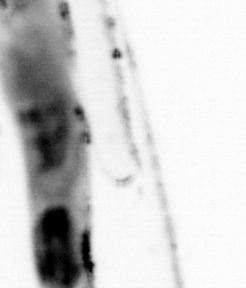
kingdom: Animalia
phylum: Chaetognatha
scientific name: Chaetognatha
